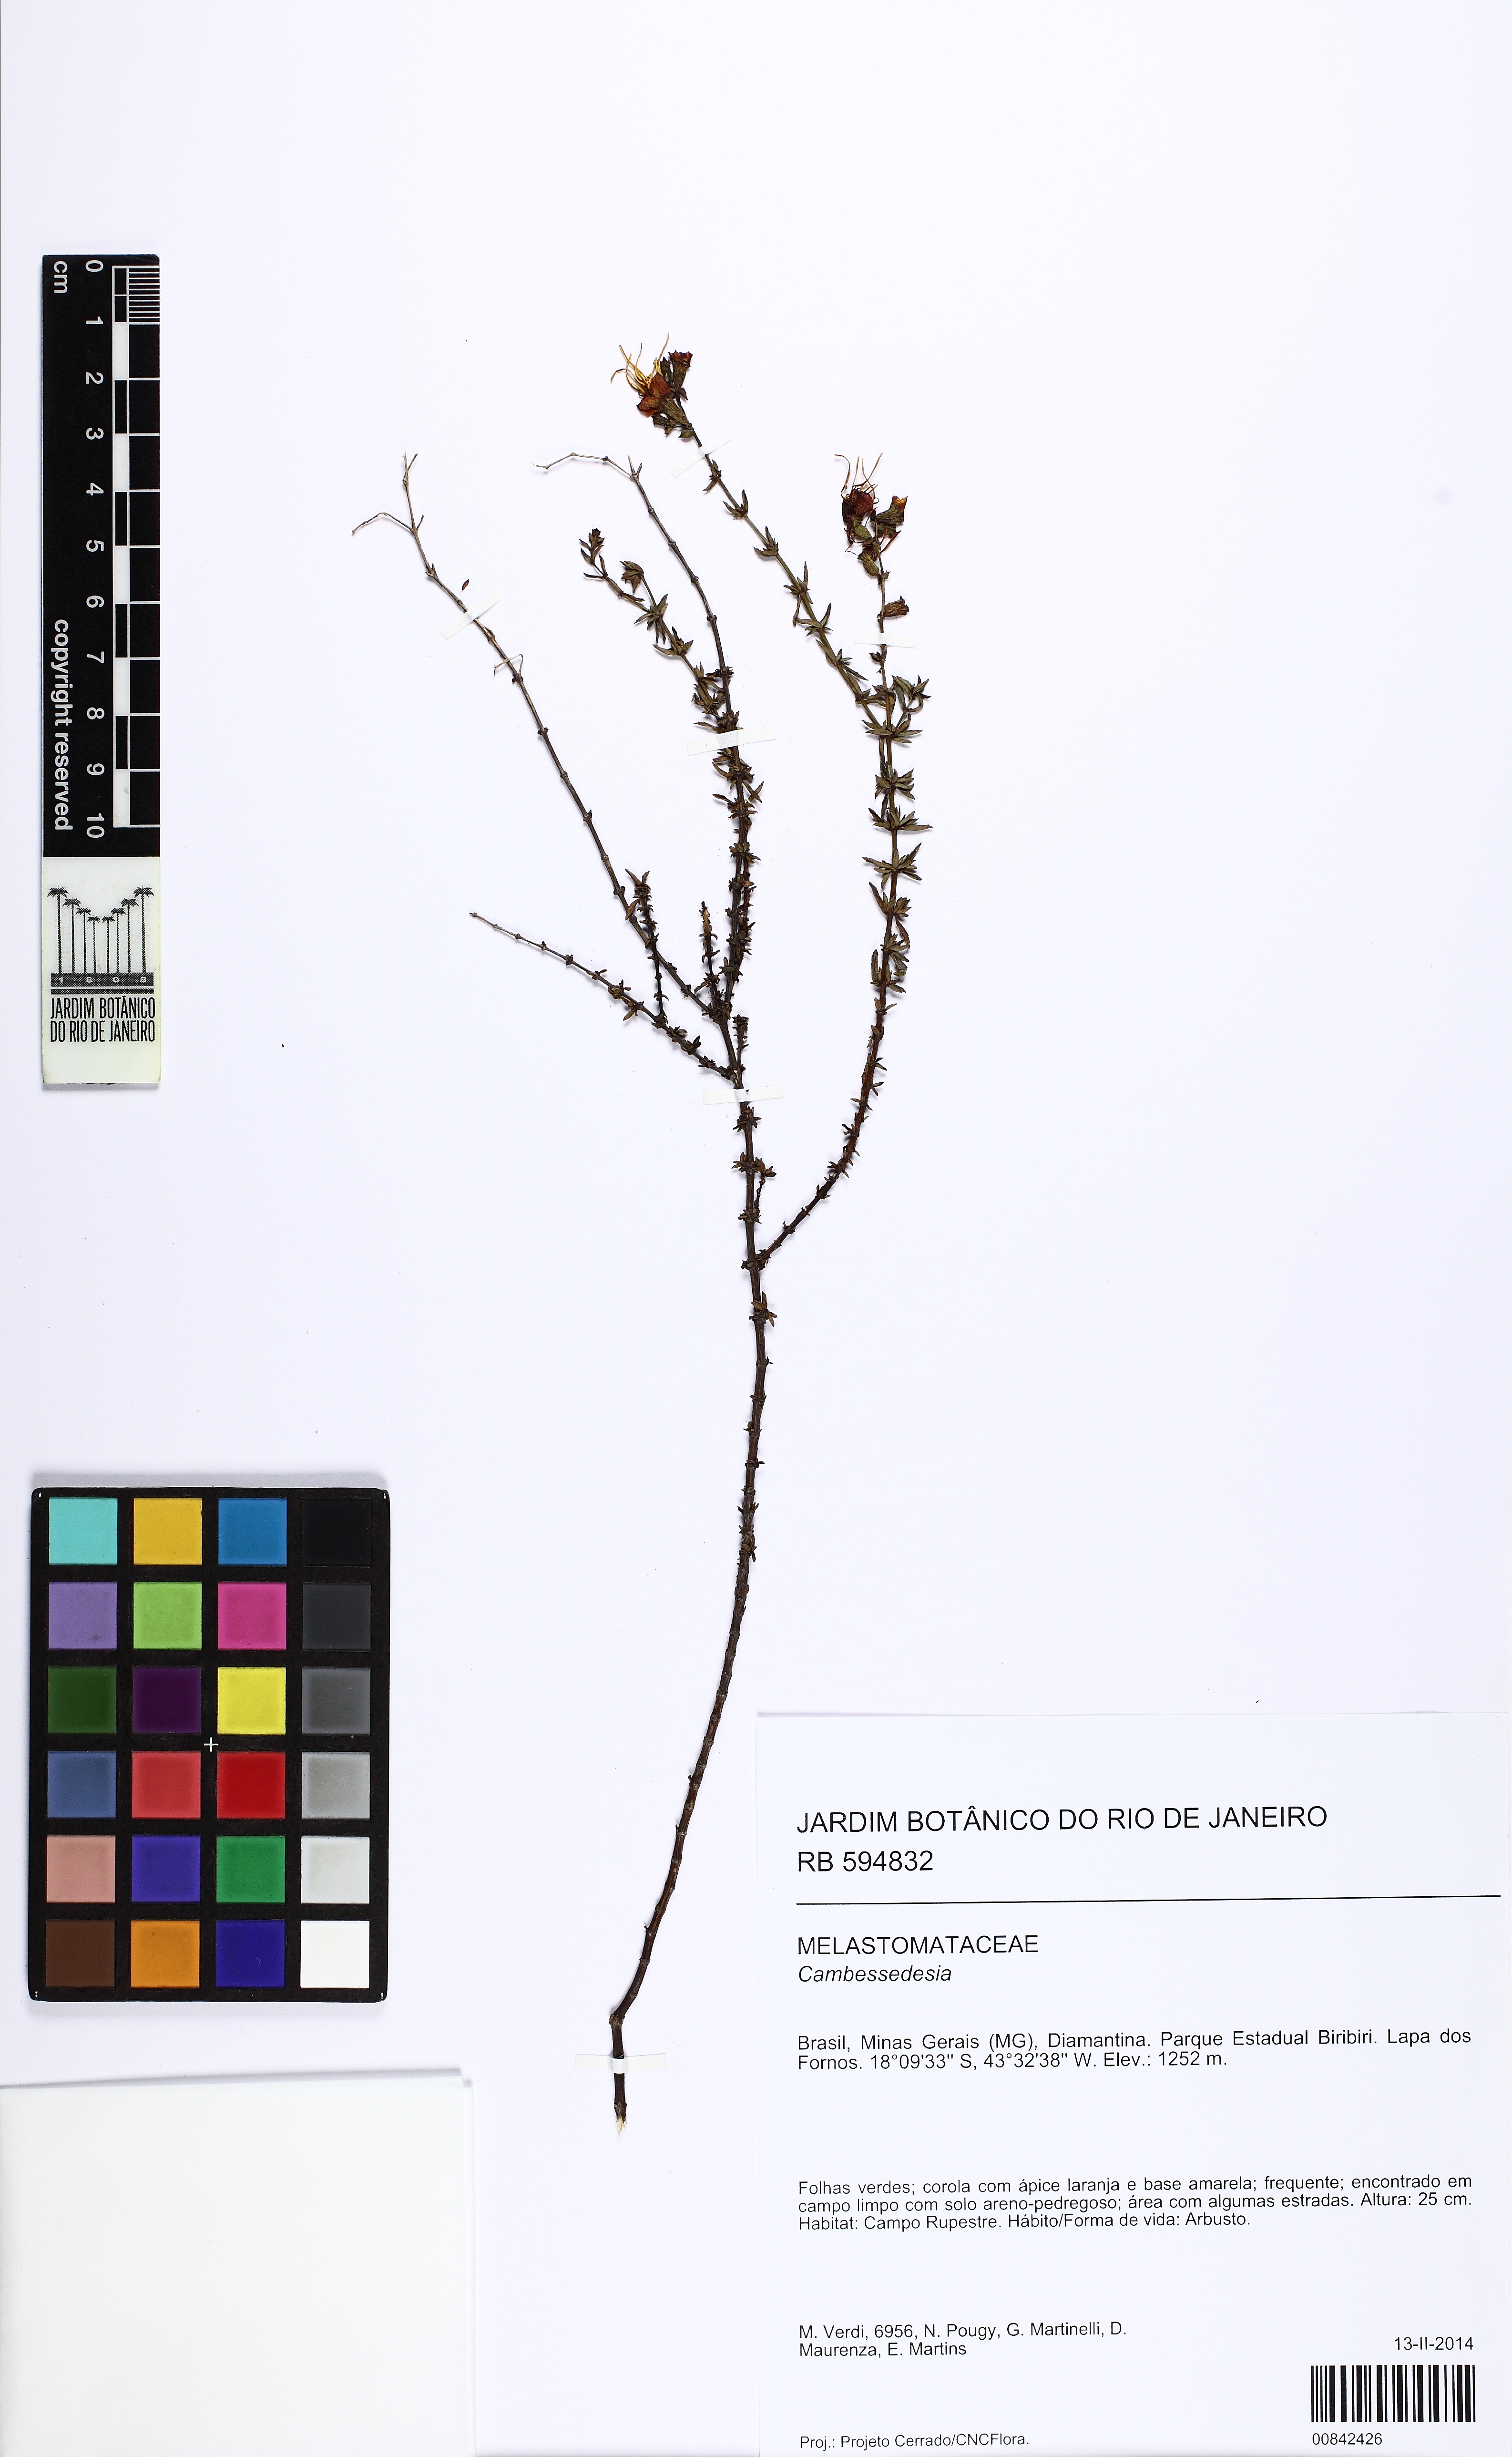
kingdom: Plantae
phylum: Tracheophyta
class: Magnoliopsida
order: Myrtales
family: Melastomataceae
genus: Cambessedesia
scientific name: Cambessedesia
